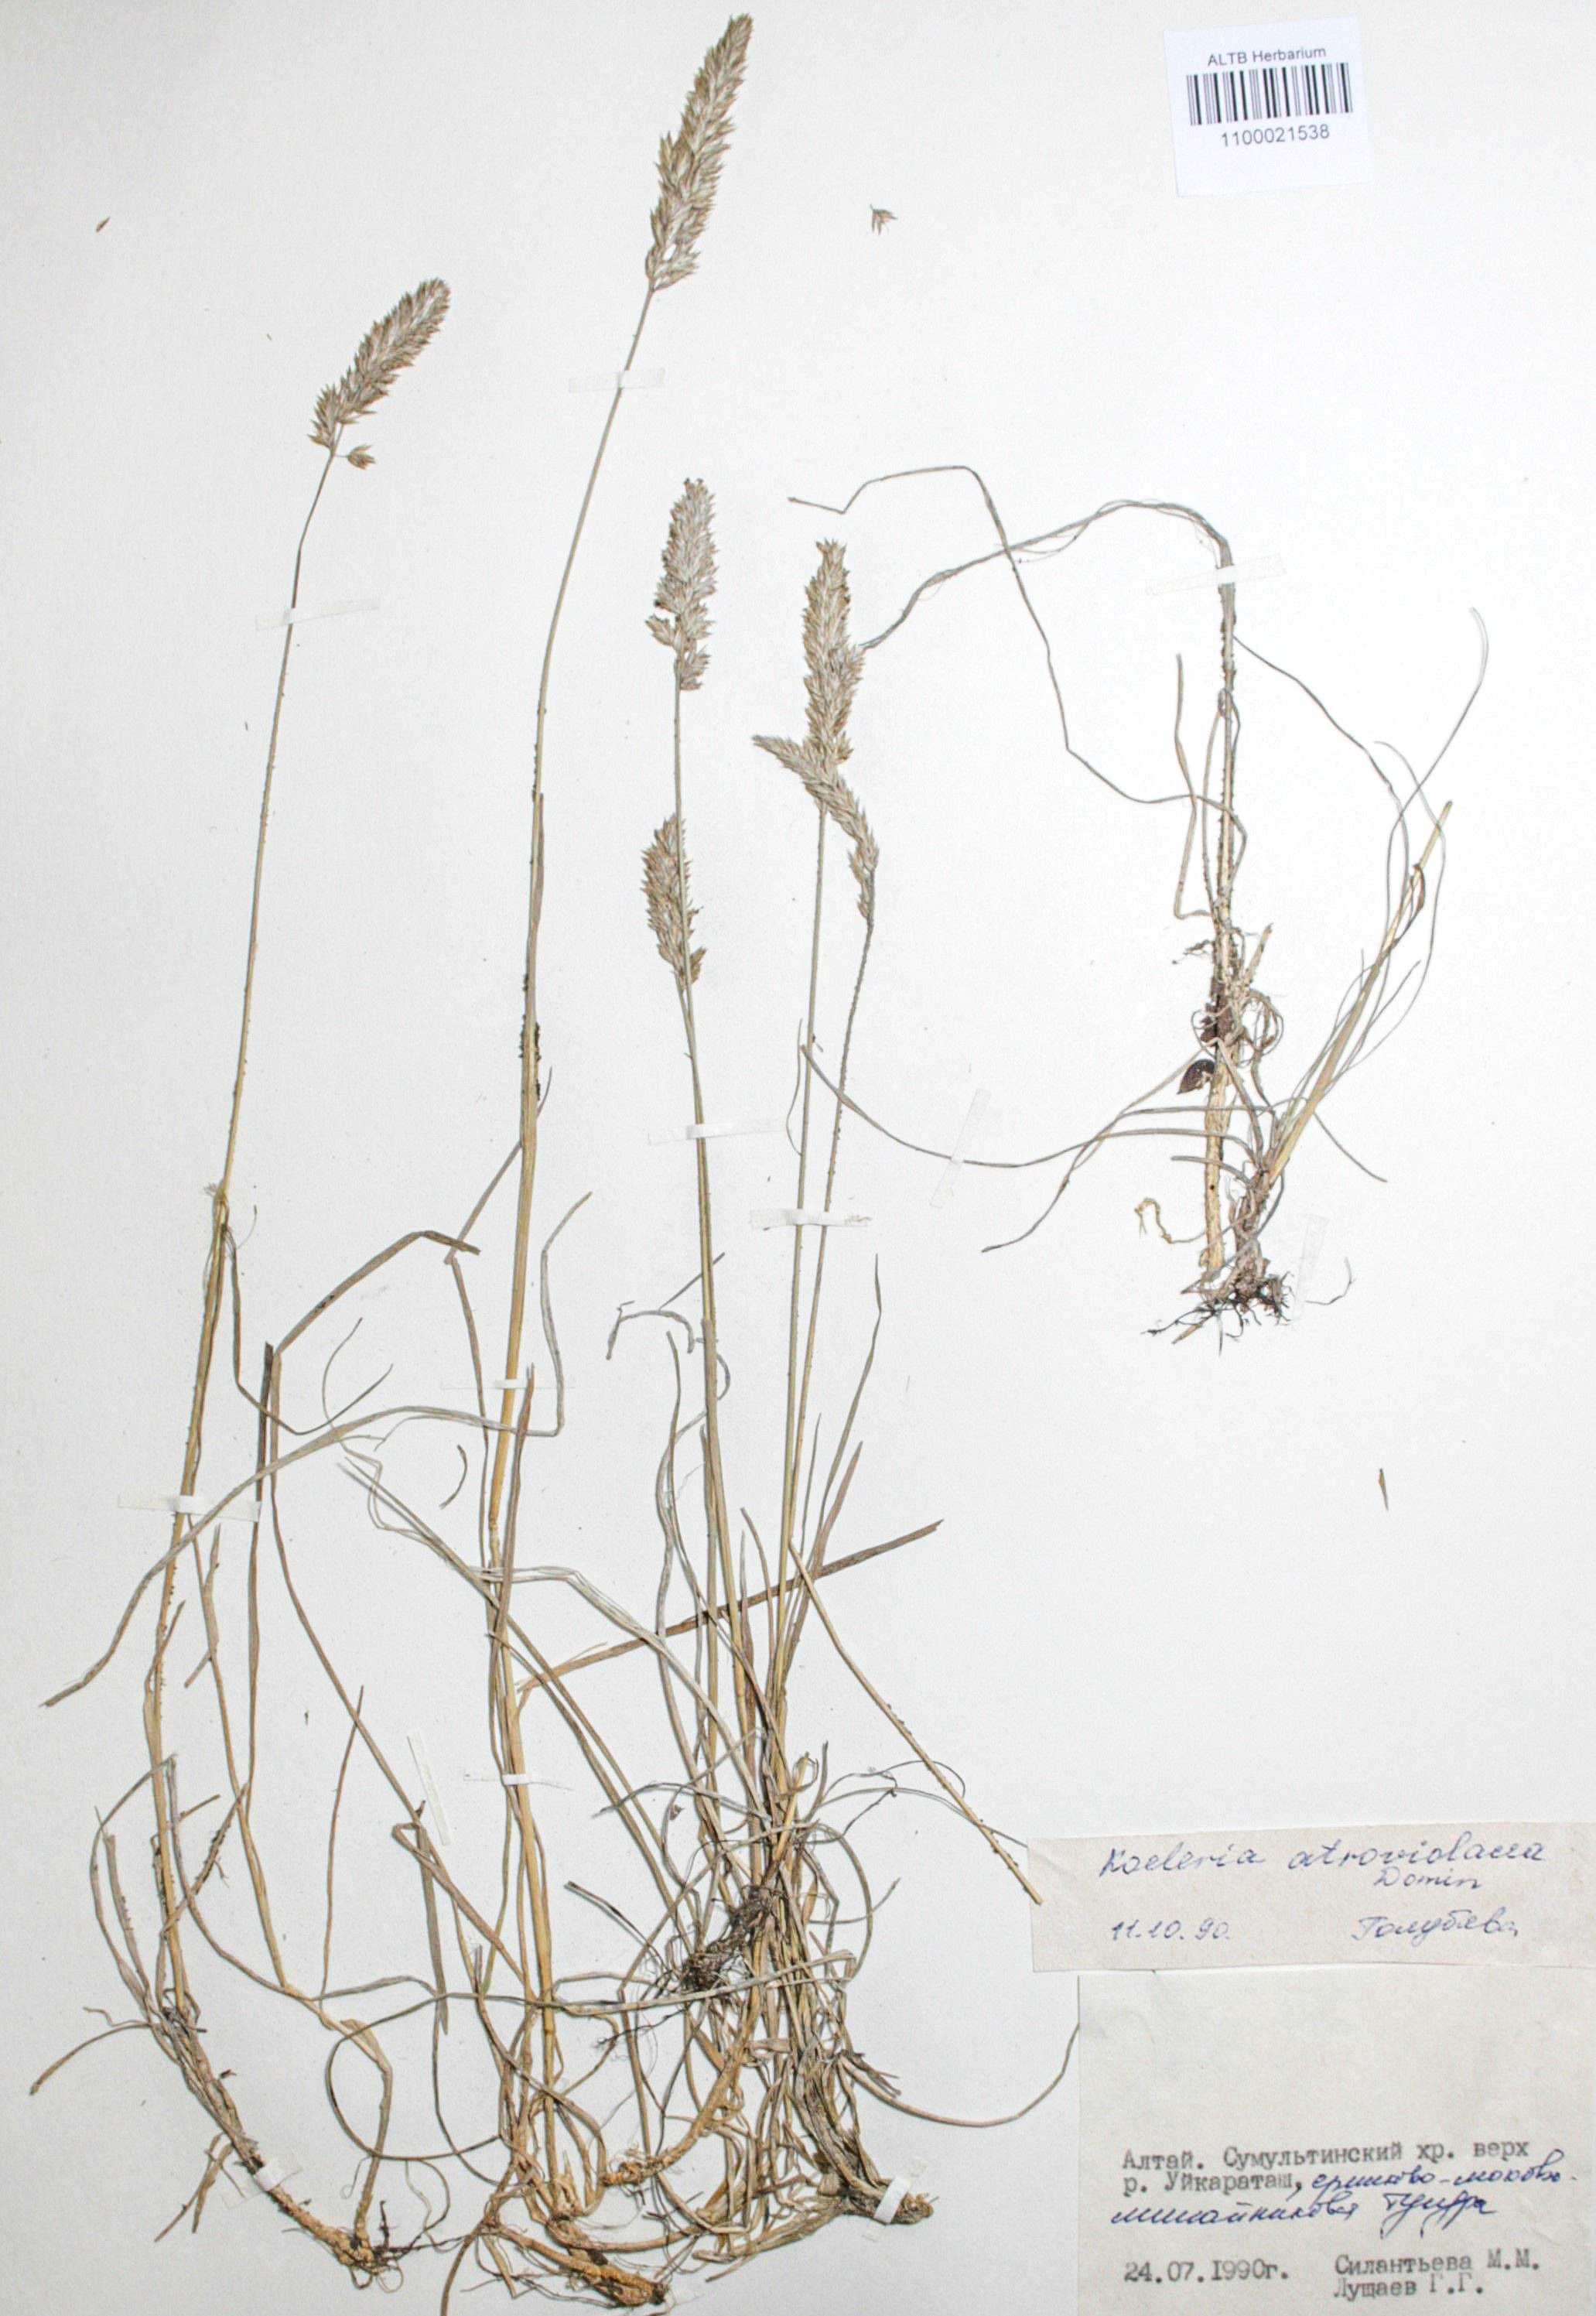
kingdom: Plantae
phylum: Tracheophyta
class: Liliopsida
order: Poales
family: Poaceae
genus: Koeleria
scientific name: Koeleria asiatica
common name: Eurasian junegrass
